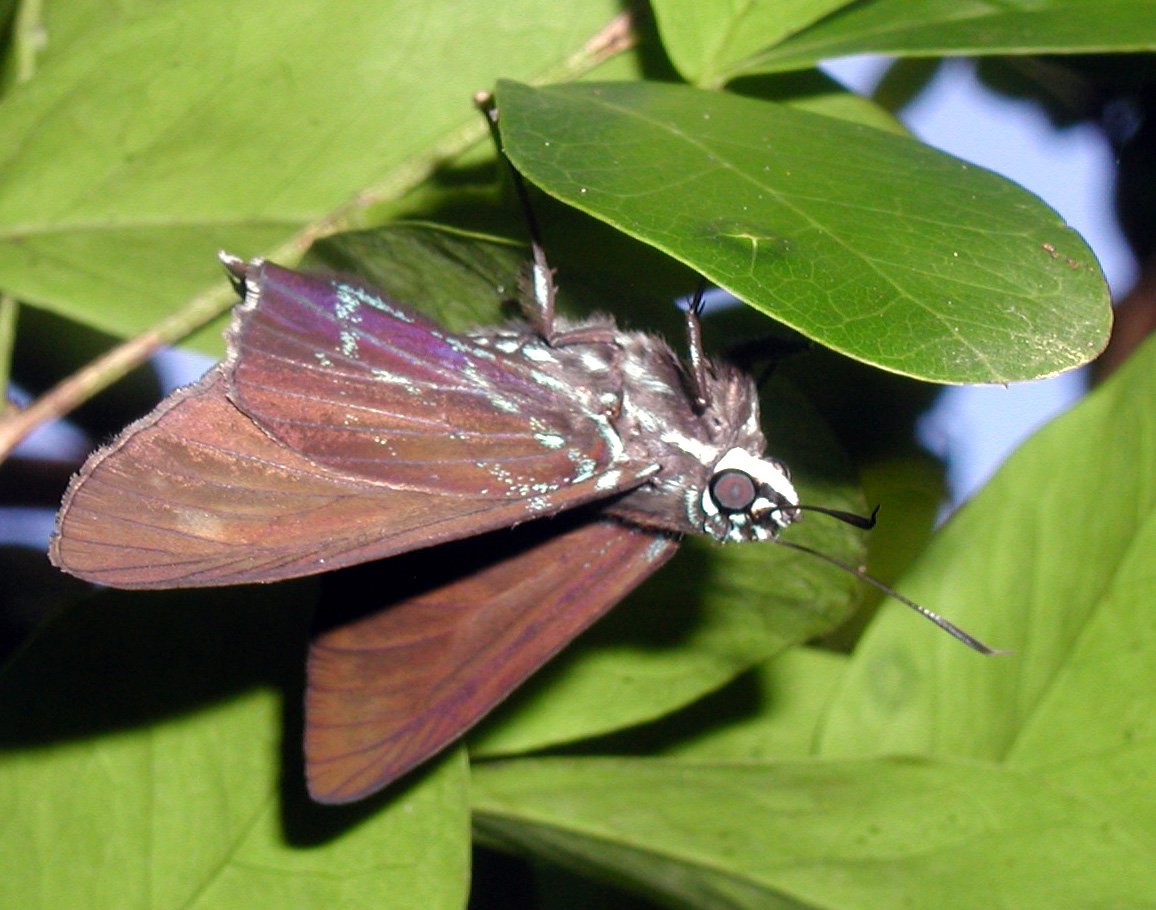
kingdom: Animalia
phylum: Arthropoda
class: Insecta
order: Lepidoptera
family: Hesperiidae
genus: Phocides
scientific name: Phocides pigmalion
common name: Mangrove Skipper
